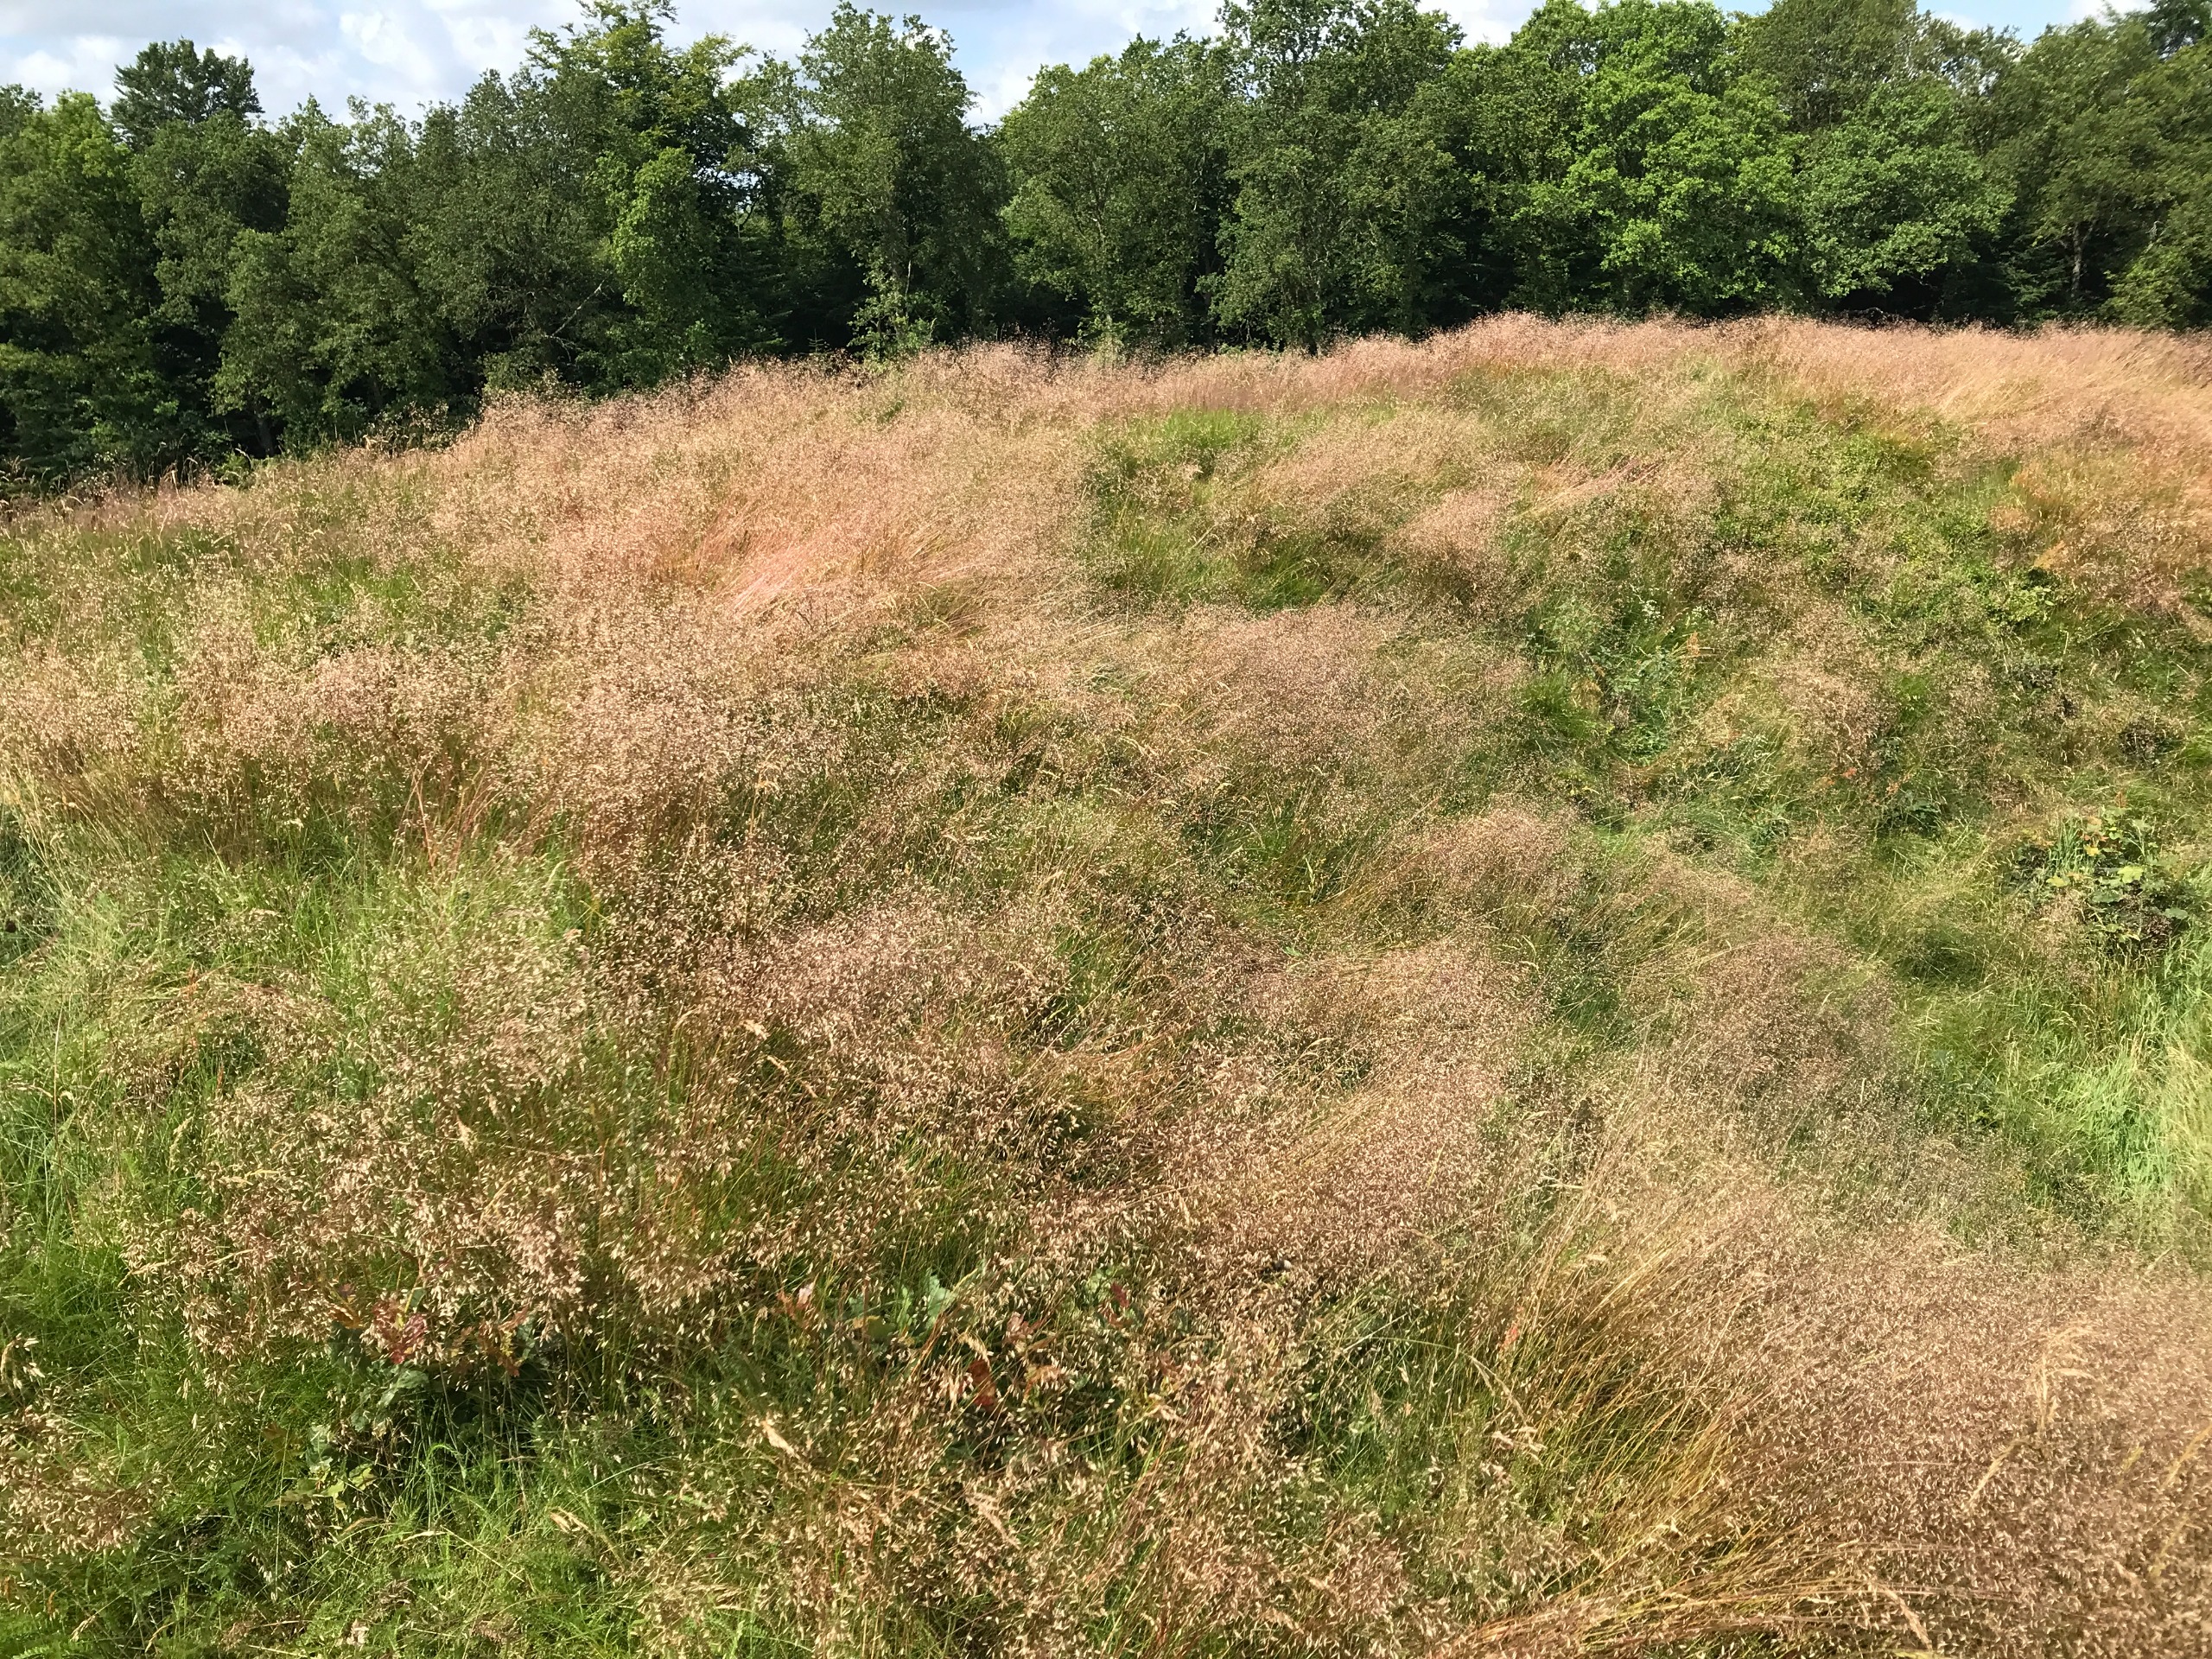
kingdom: Plantae
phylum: Tracheophyta
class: Liliopsida
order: Poales
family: Poaceae
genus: Avenella
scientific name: Avenella flexuosa
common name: Bølget bunke
